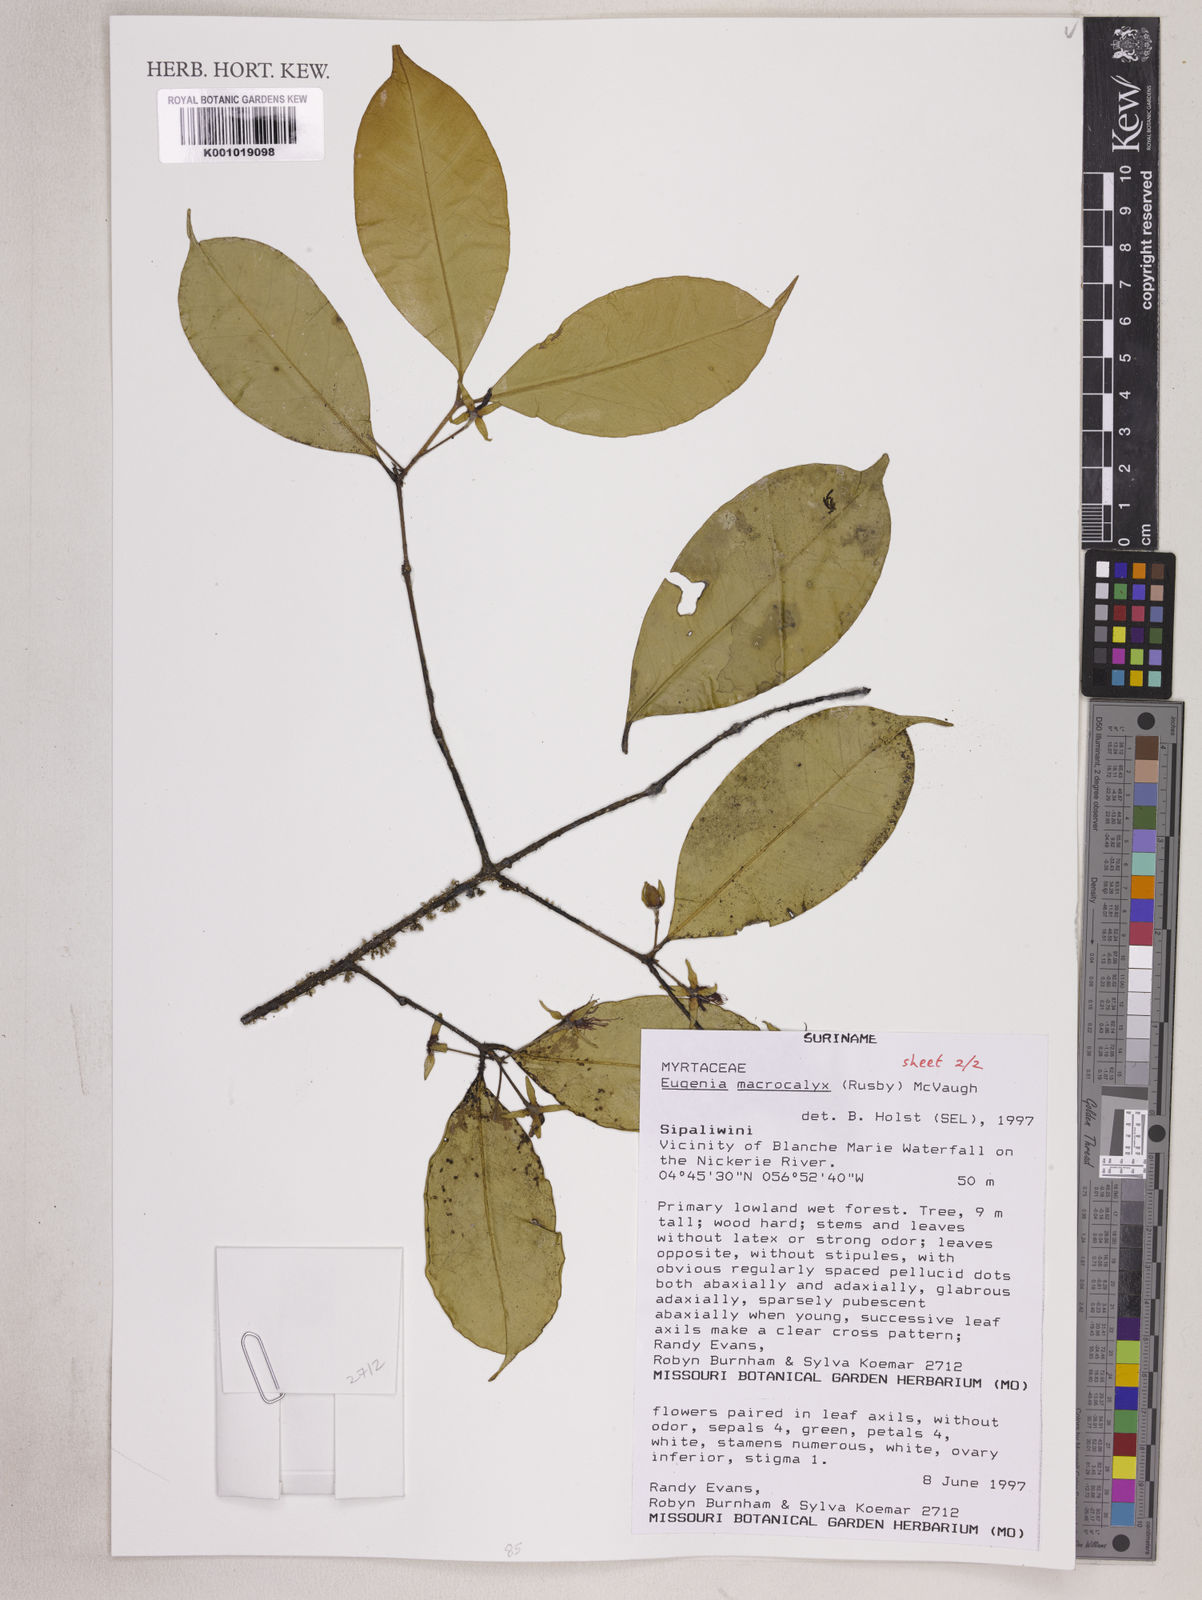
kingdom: Plantae
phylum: Tracheophyta
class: Magnoliopsida
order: Myrtales
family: Myrtaceae
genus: Eugenia
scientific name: Eugenia wentii
